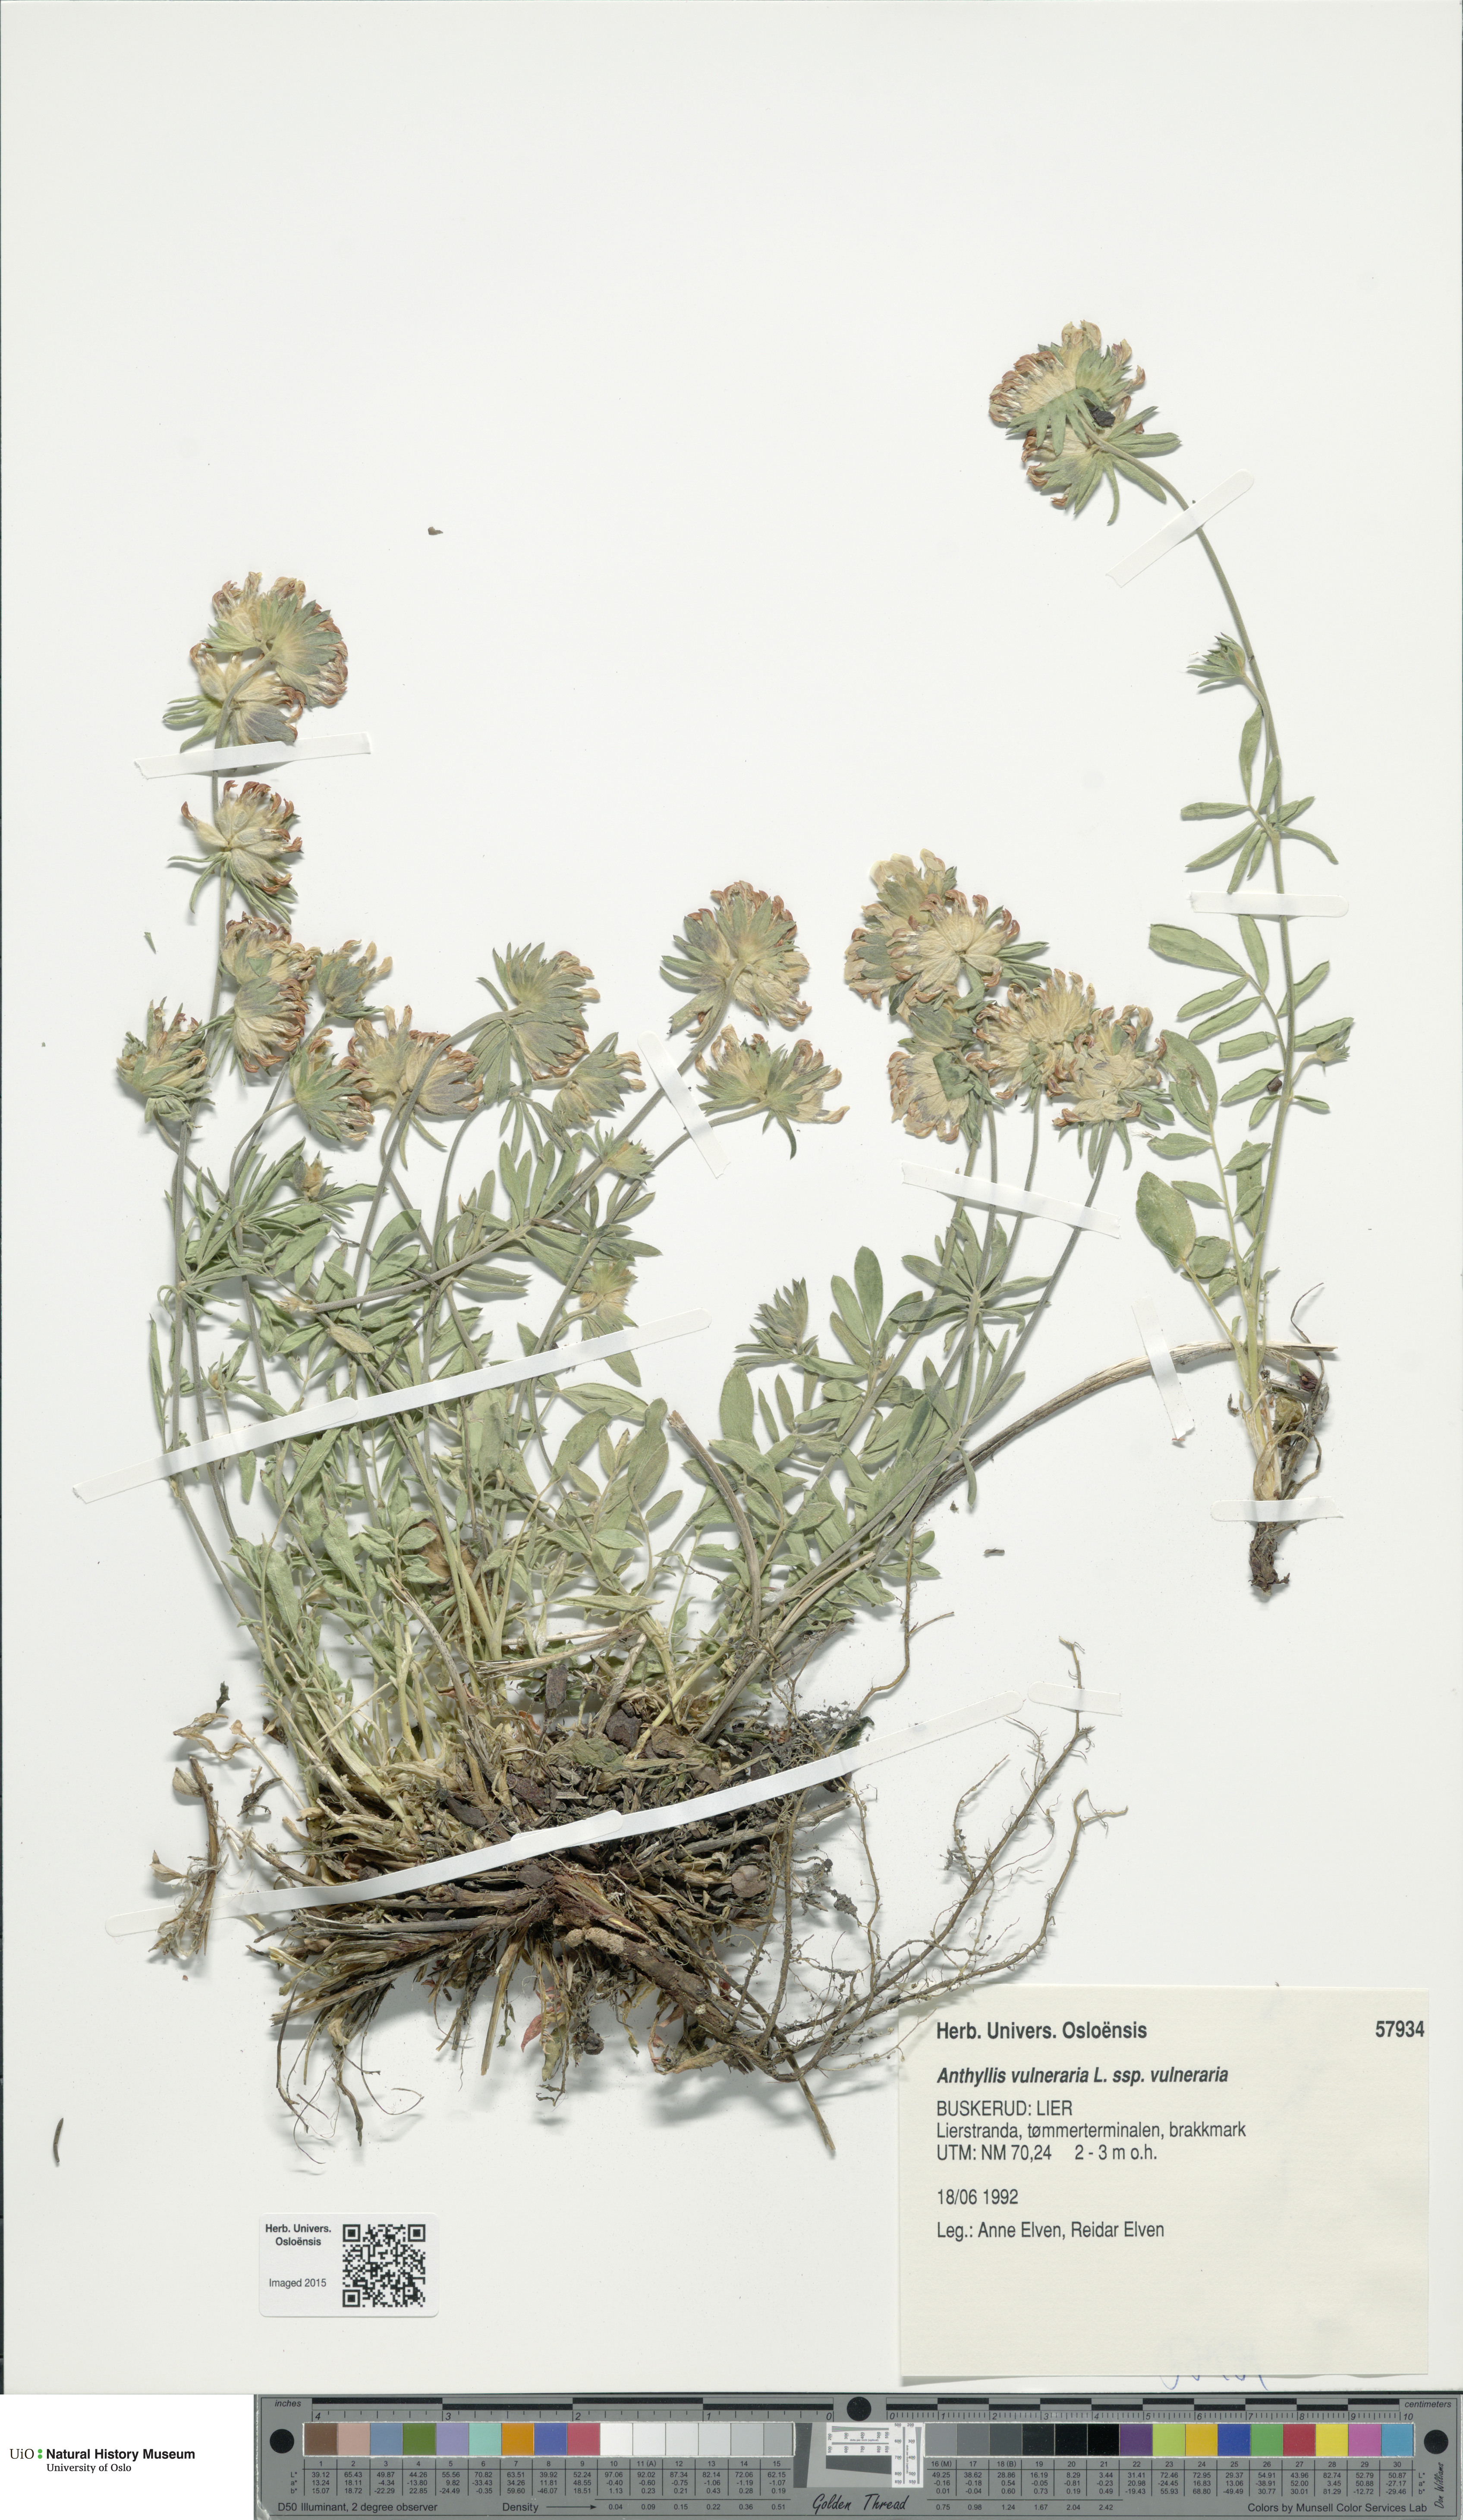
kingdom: Plantae
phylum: Tracheophyta
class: Magnoliopsida
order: Fabales
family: Fabaceae
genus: Anthyllis
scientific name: Anthyllis vulneraria
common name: Kidney vetch
